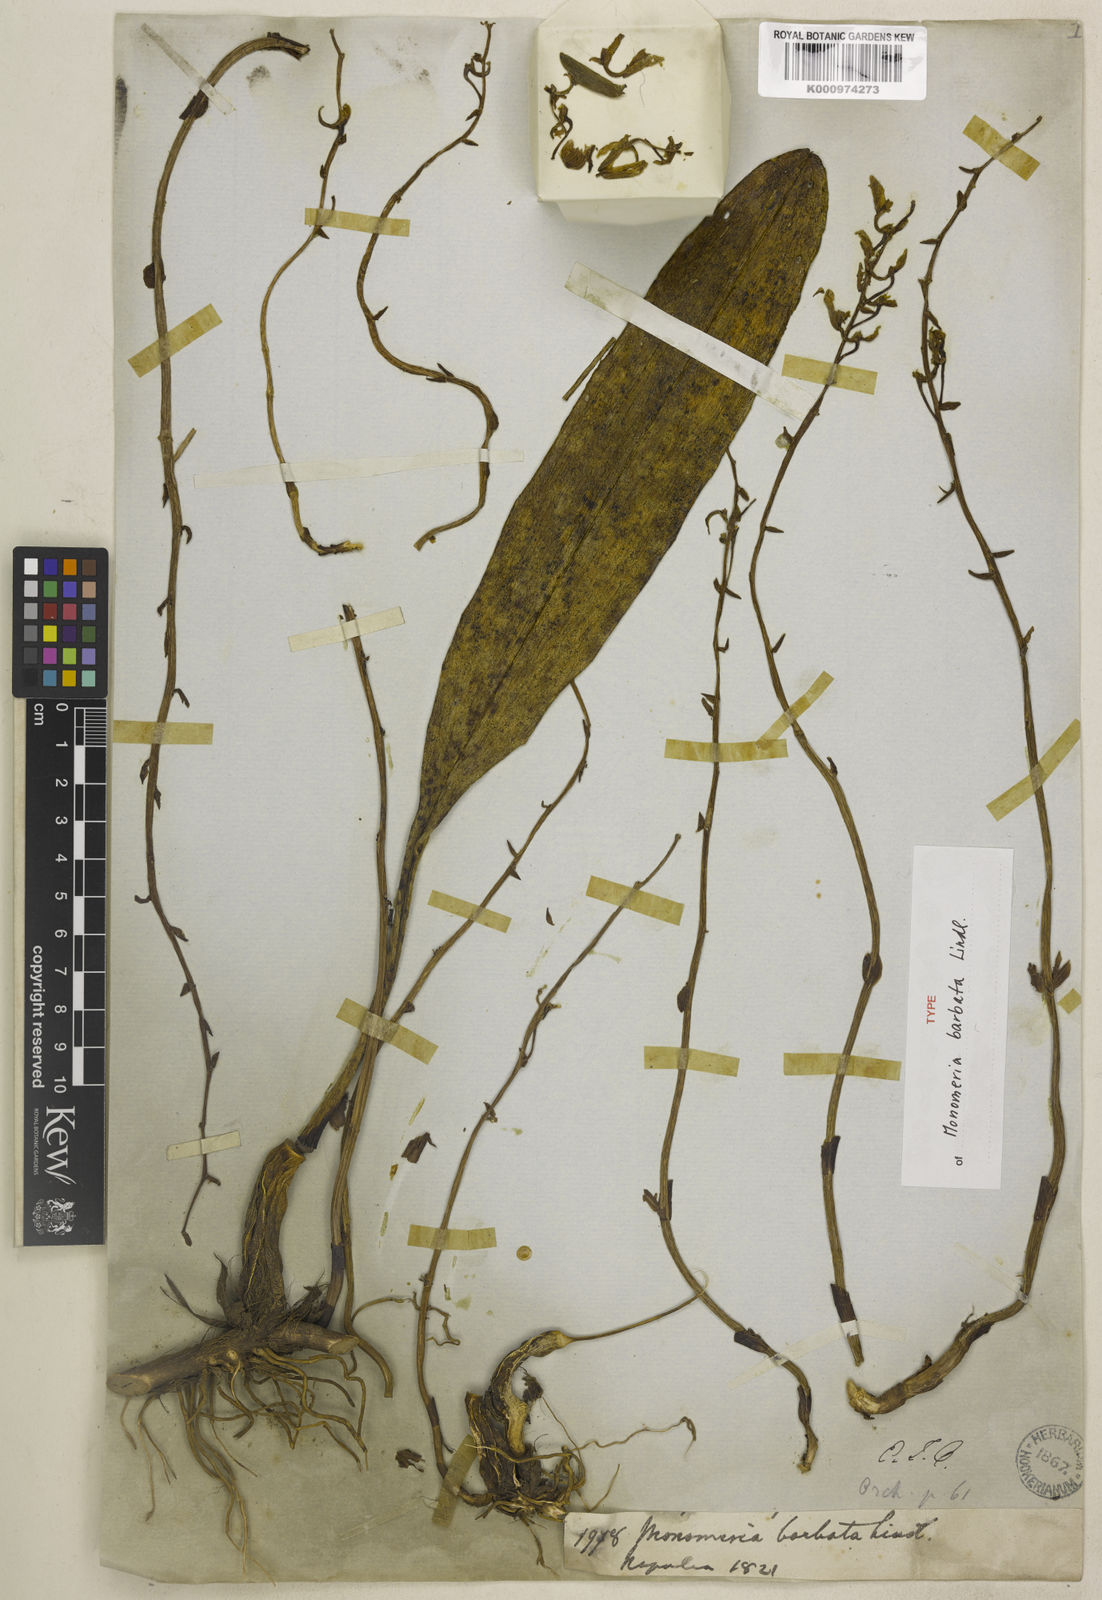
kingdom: Plantae
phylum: Tracheophyta
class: Liliopsida
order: Asparagales
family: Orchidaceae
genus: Bulbophyllum
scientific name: Bulbophyllum crabro
